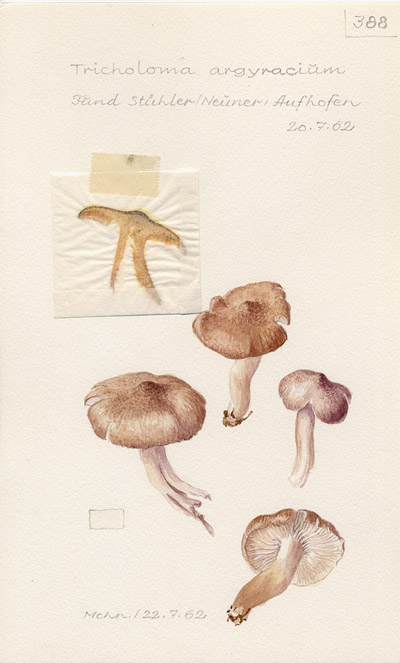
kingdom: Fungi
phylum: Basidiomycota
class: Agaricomycetes
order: Agaricales
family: Tricholomataceae
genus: Tricholoma
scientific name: Tricholoma argyraceum
